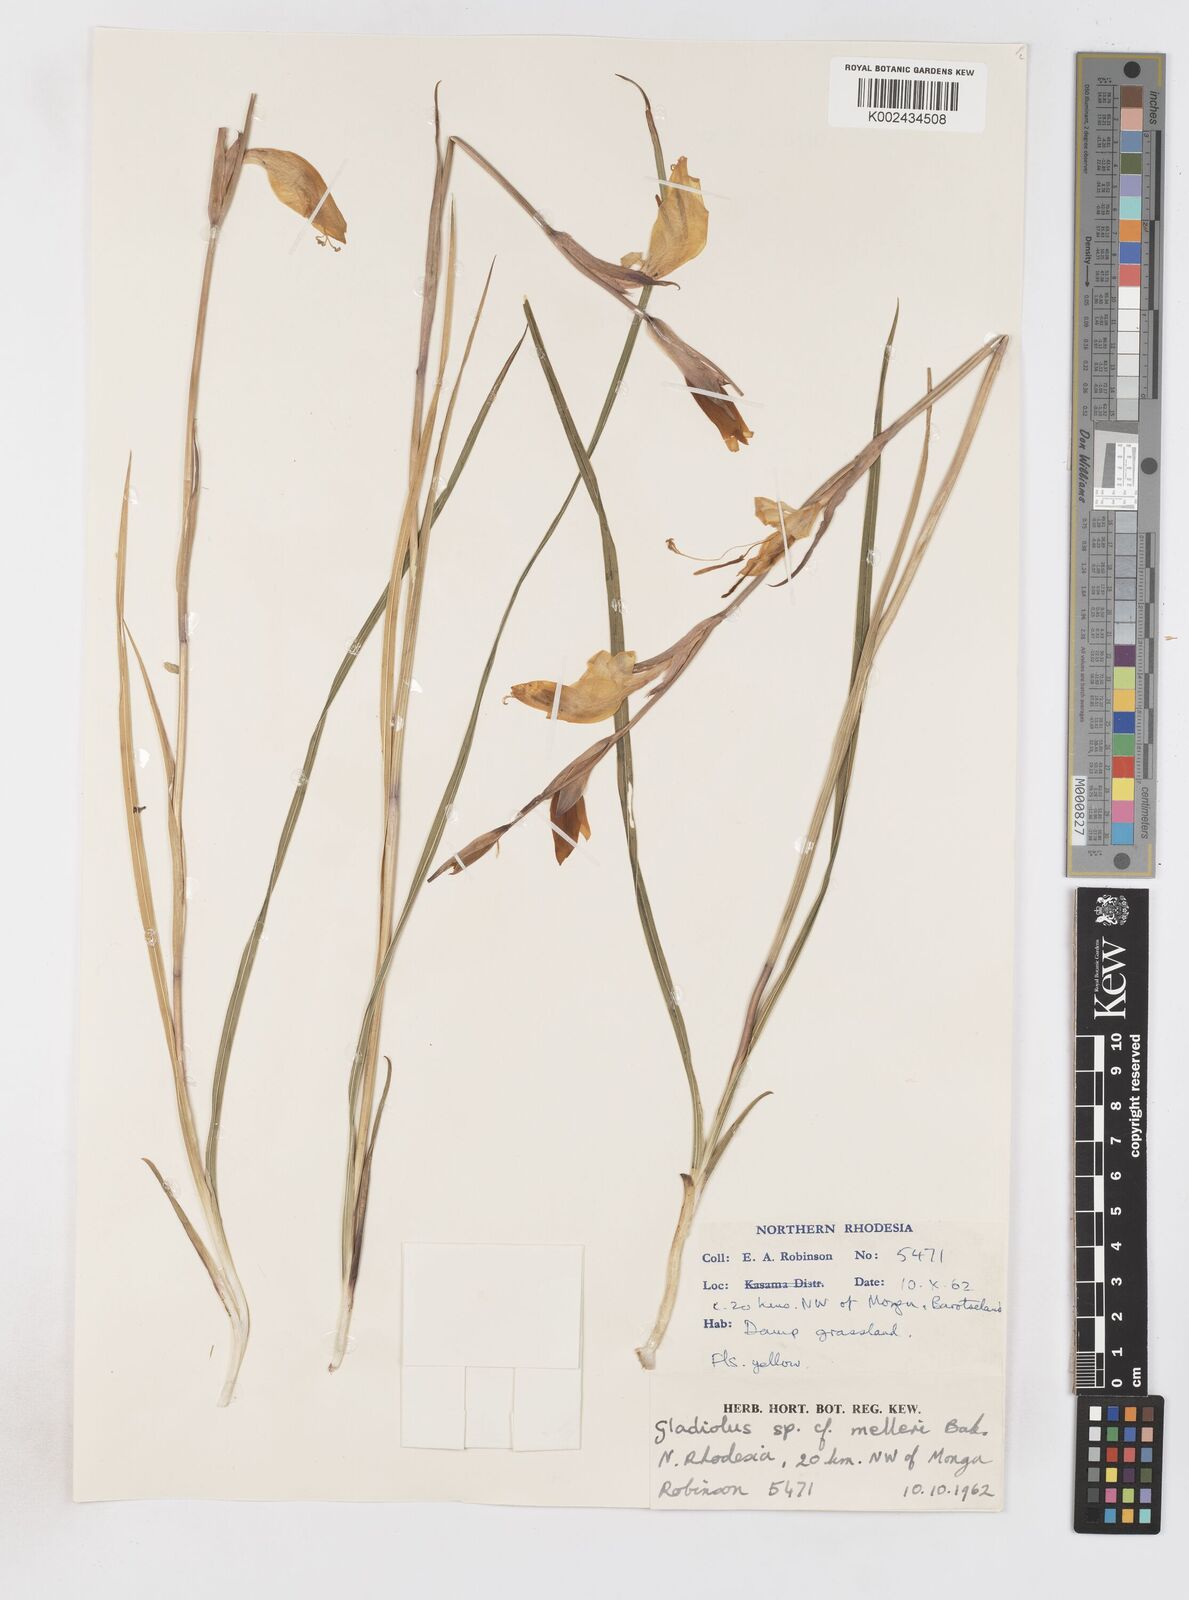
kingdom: Plantae
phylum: Tracheophyta
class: Liliopsida
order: Asparagales
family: Iridaceae
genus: Gladiolus
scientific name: Gladiolus dalenii
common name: Cornflag
